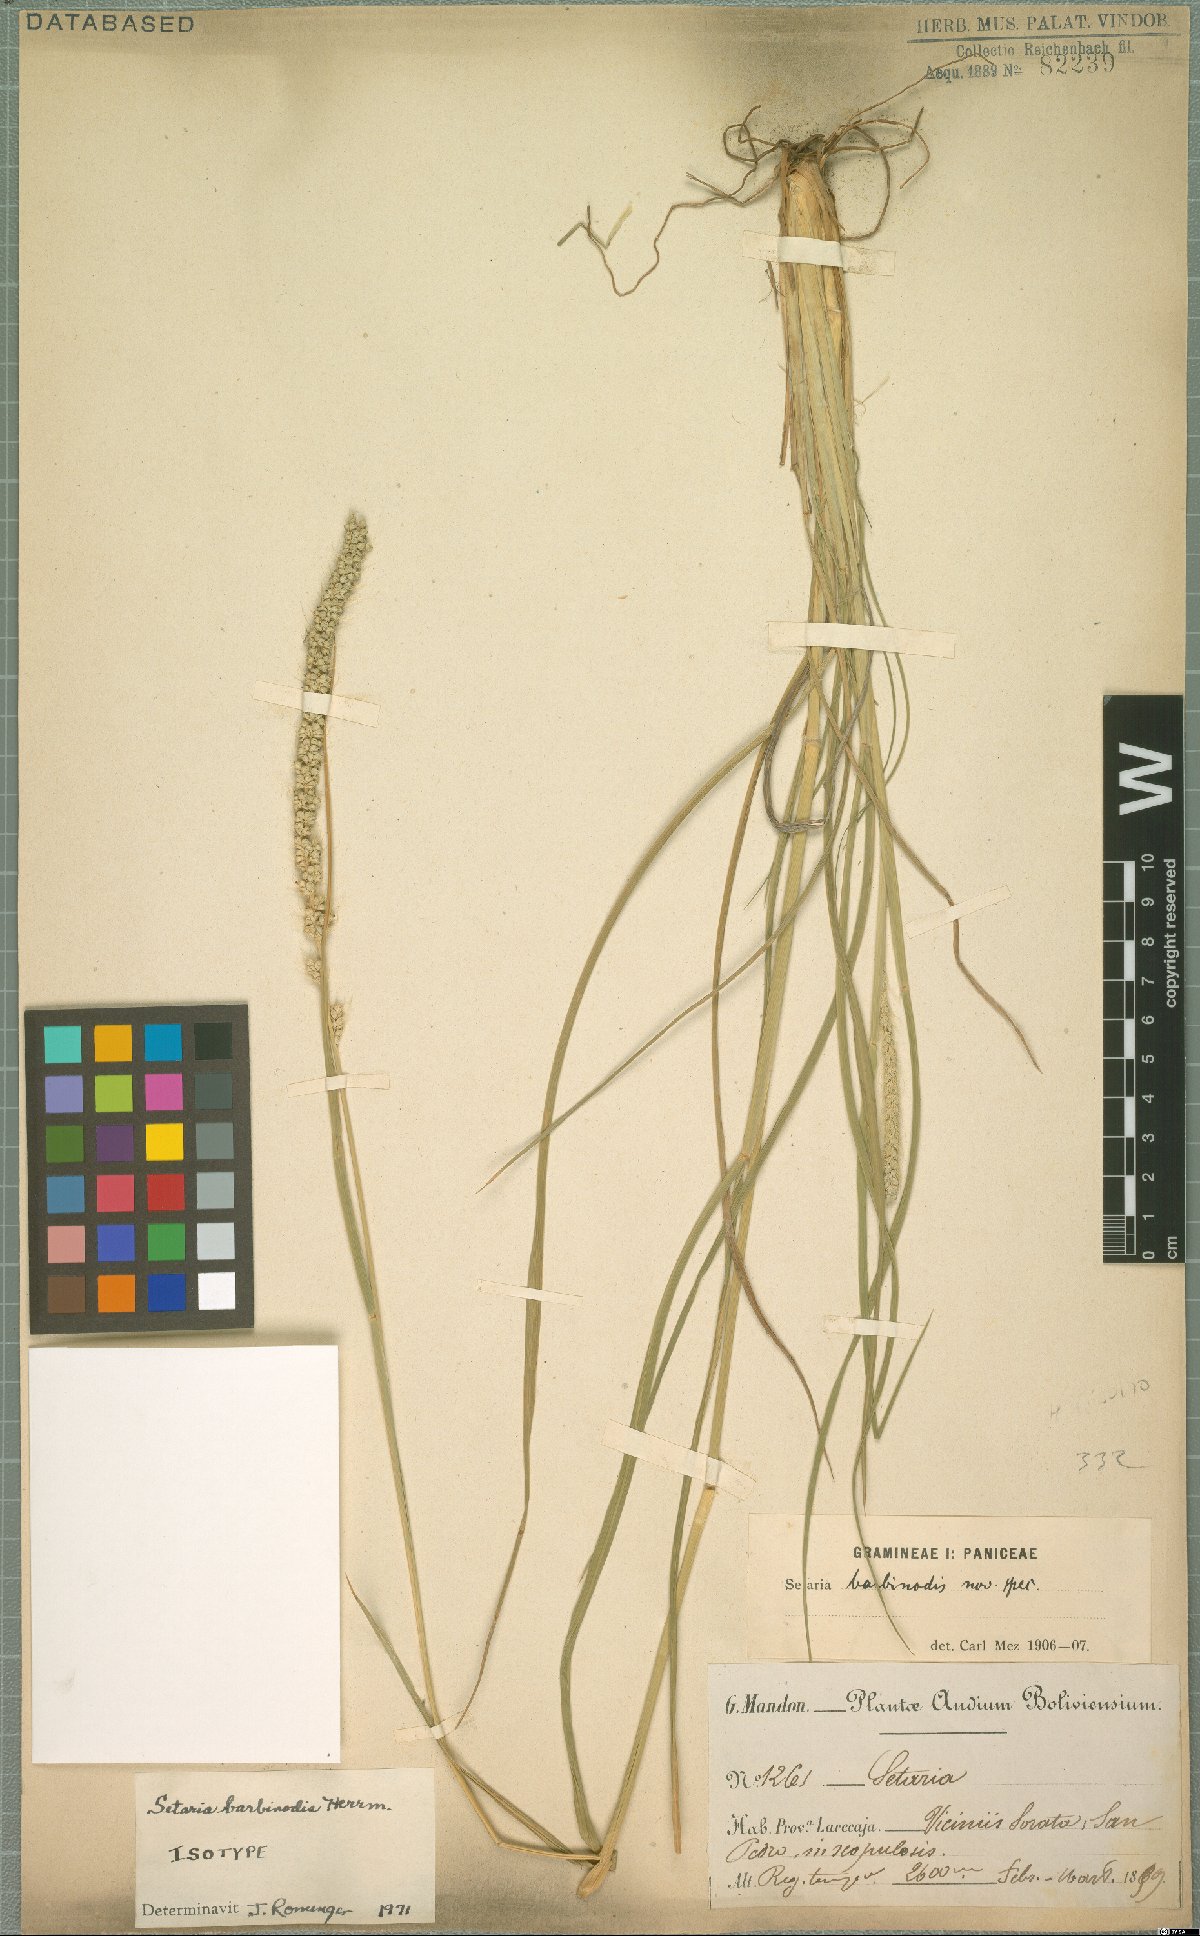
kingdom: Plantae
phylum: Tracheophyta
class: Liliopsida
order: Poales
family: Poaceae
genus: Setaria
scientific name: Setaria barbinodis
